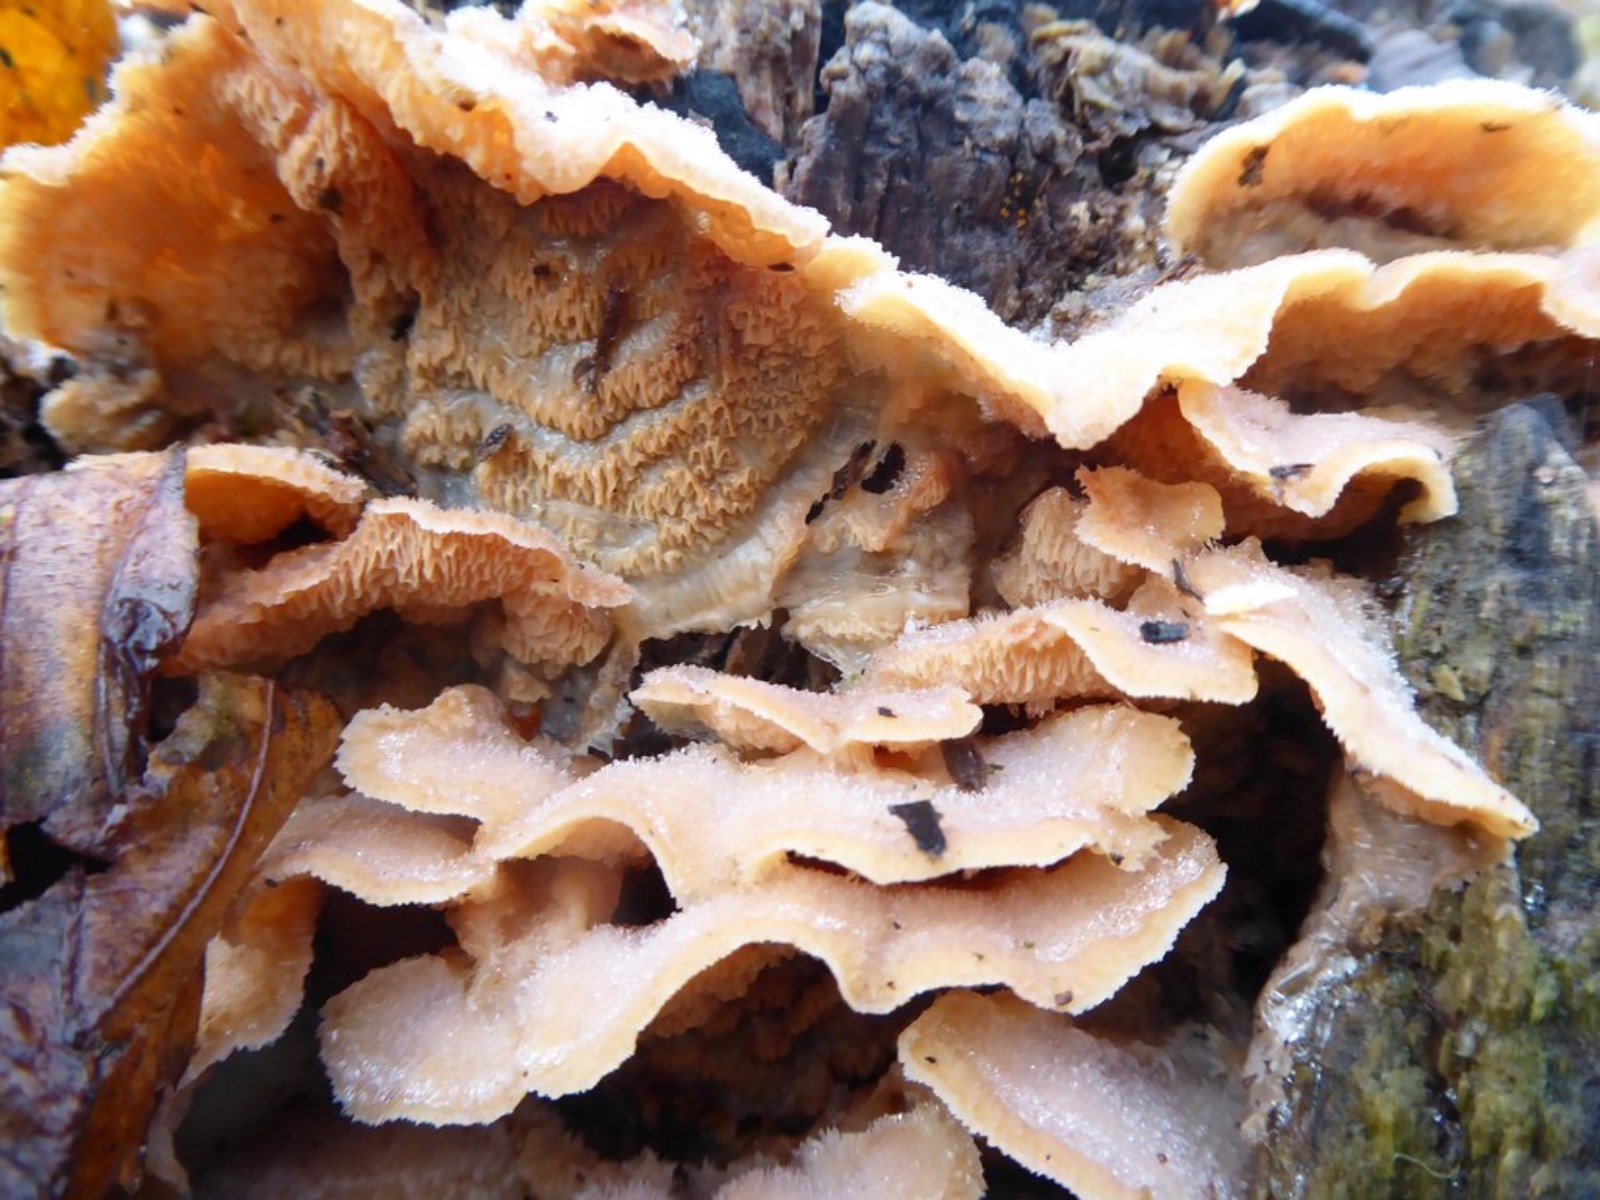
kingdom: Fungi
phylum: Basidiomycota
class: Agaricomycetes
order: Polyporales
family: Meruliaceae
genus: Phlebia
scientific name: Phlebia tremellosa
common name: bævrende åresvamp
